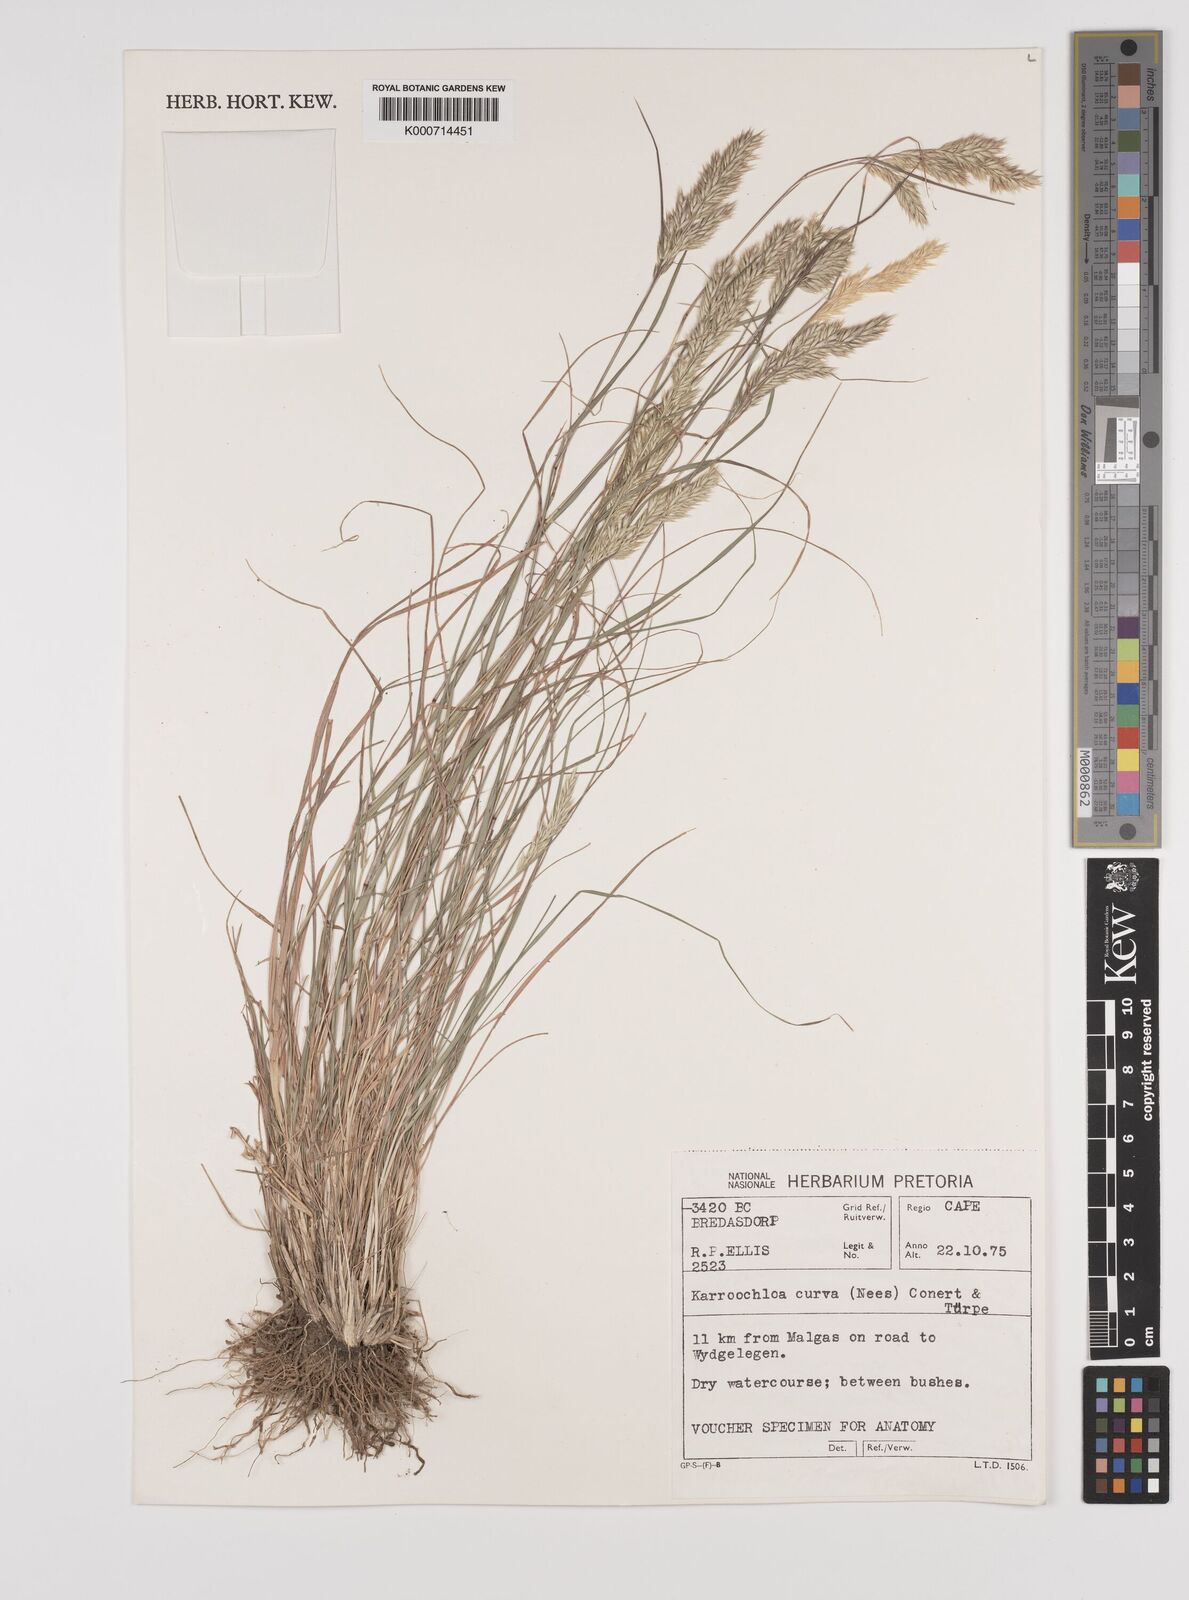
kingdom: Plantae
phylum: Tracheophyta
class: Liliopsida
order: Poales
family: Poaceae
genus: Rytidosperma
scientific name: Rytidosperma
